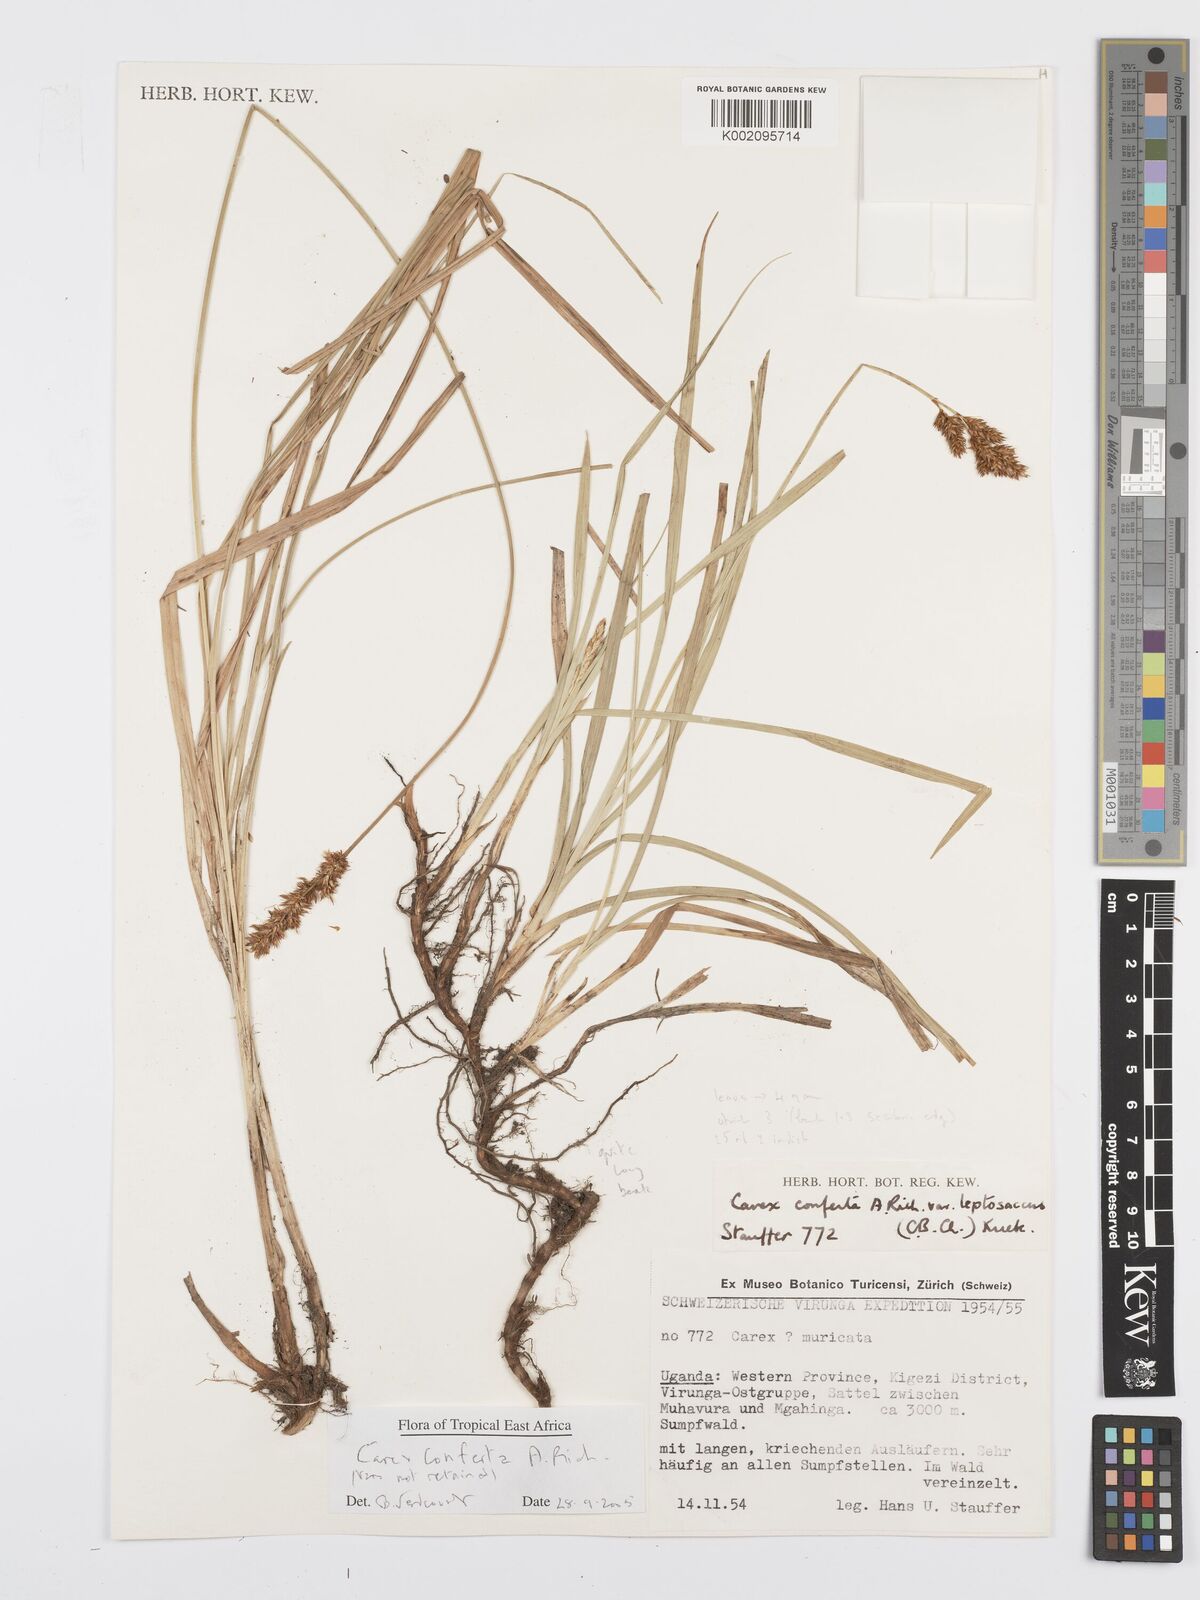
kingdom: Plantae
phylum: Tracheophyta
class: Liliopsida
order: Poales
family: Cyperaceae
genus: Carex
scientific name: Carex conferta
